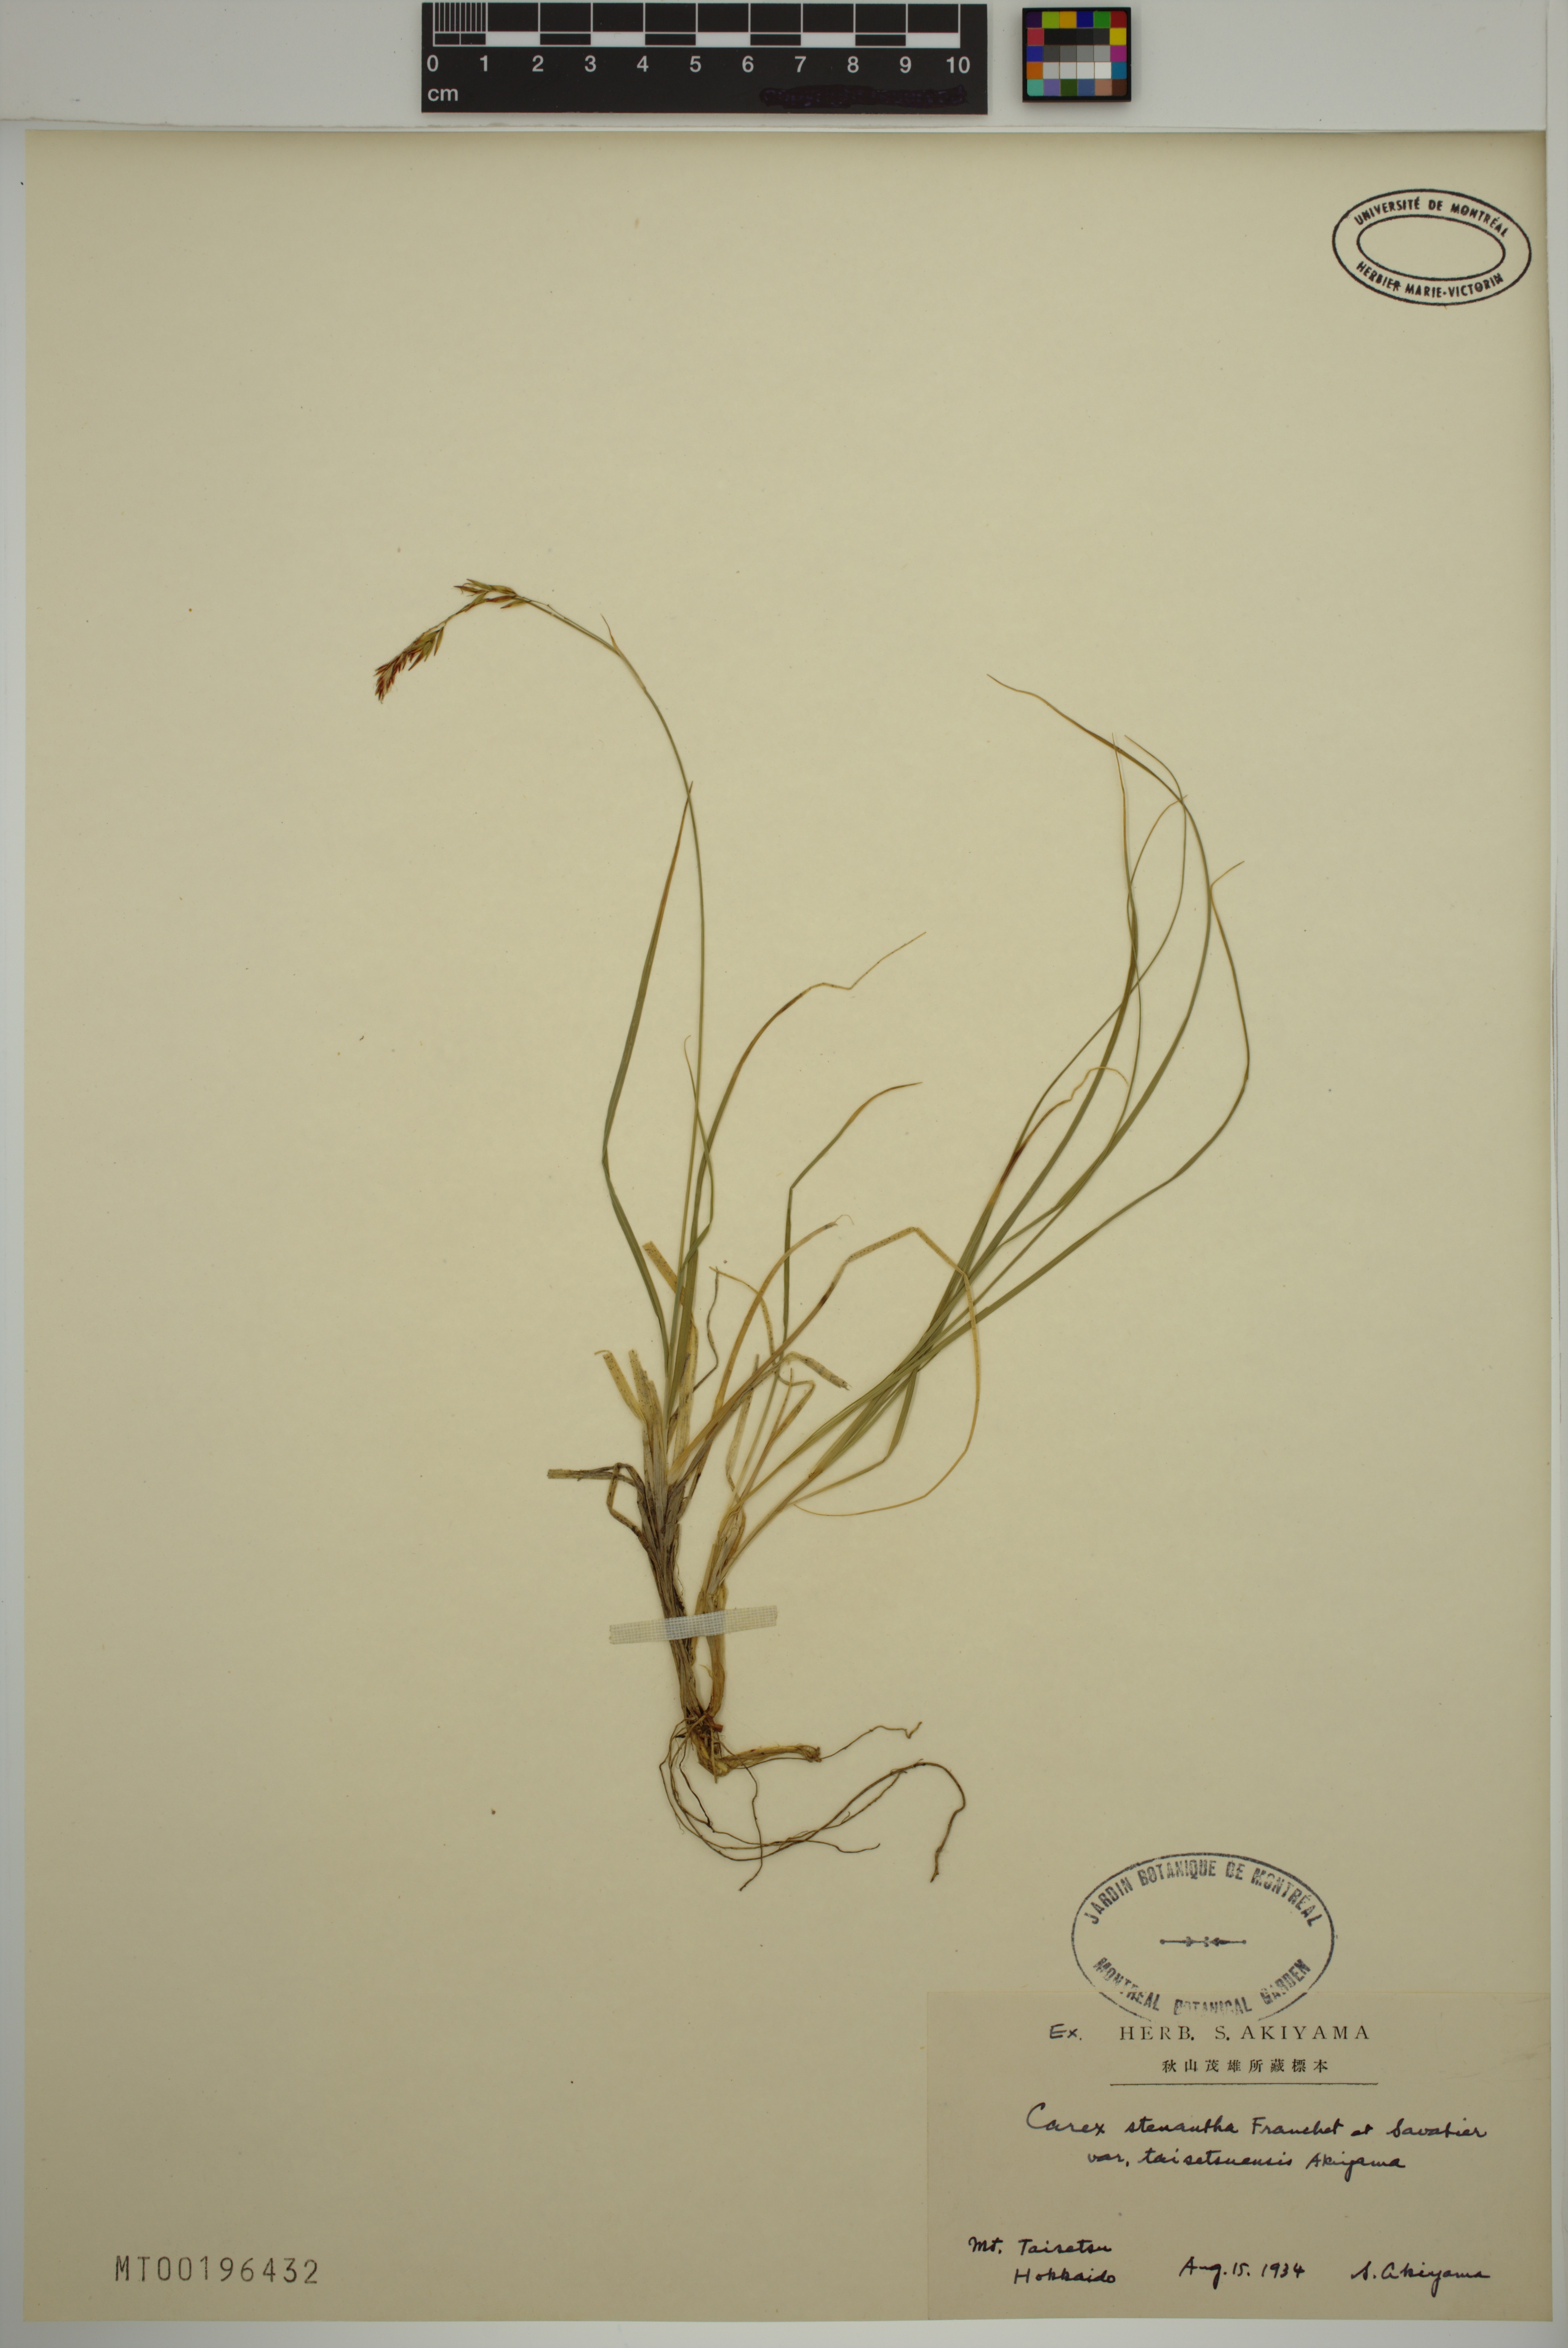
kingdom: Plantae
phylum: Tracheophyta
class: Liliopsida
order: Poales
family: Cyperaceae
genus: Carex
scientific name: Carex stenantha
